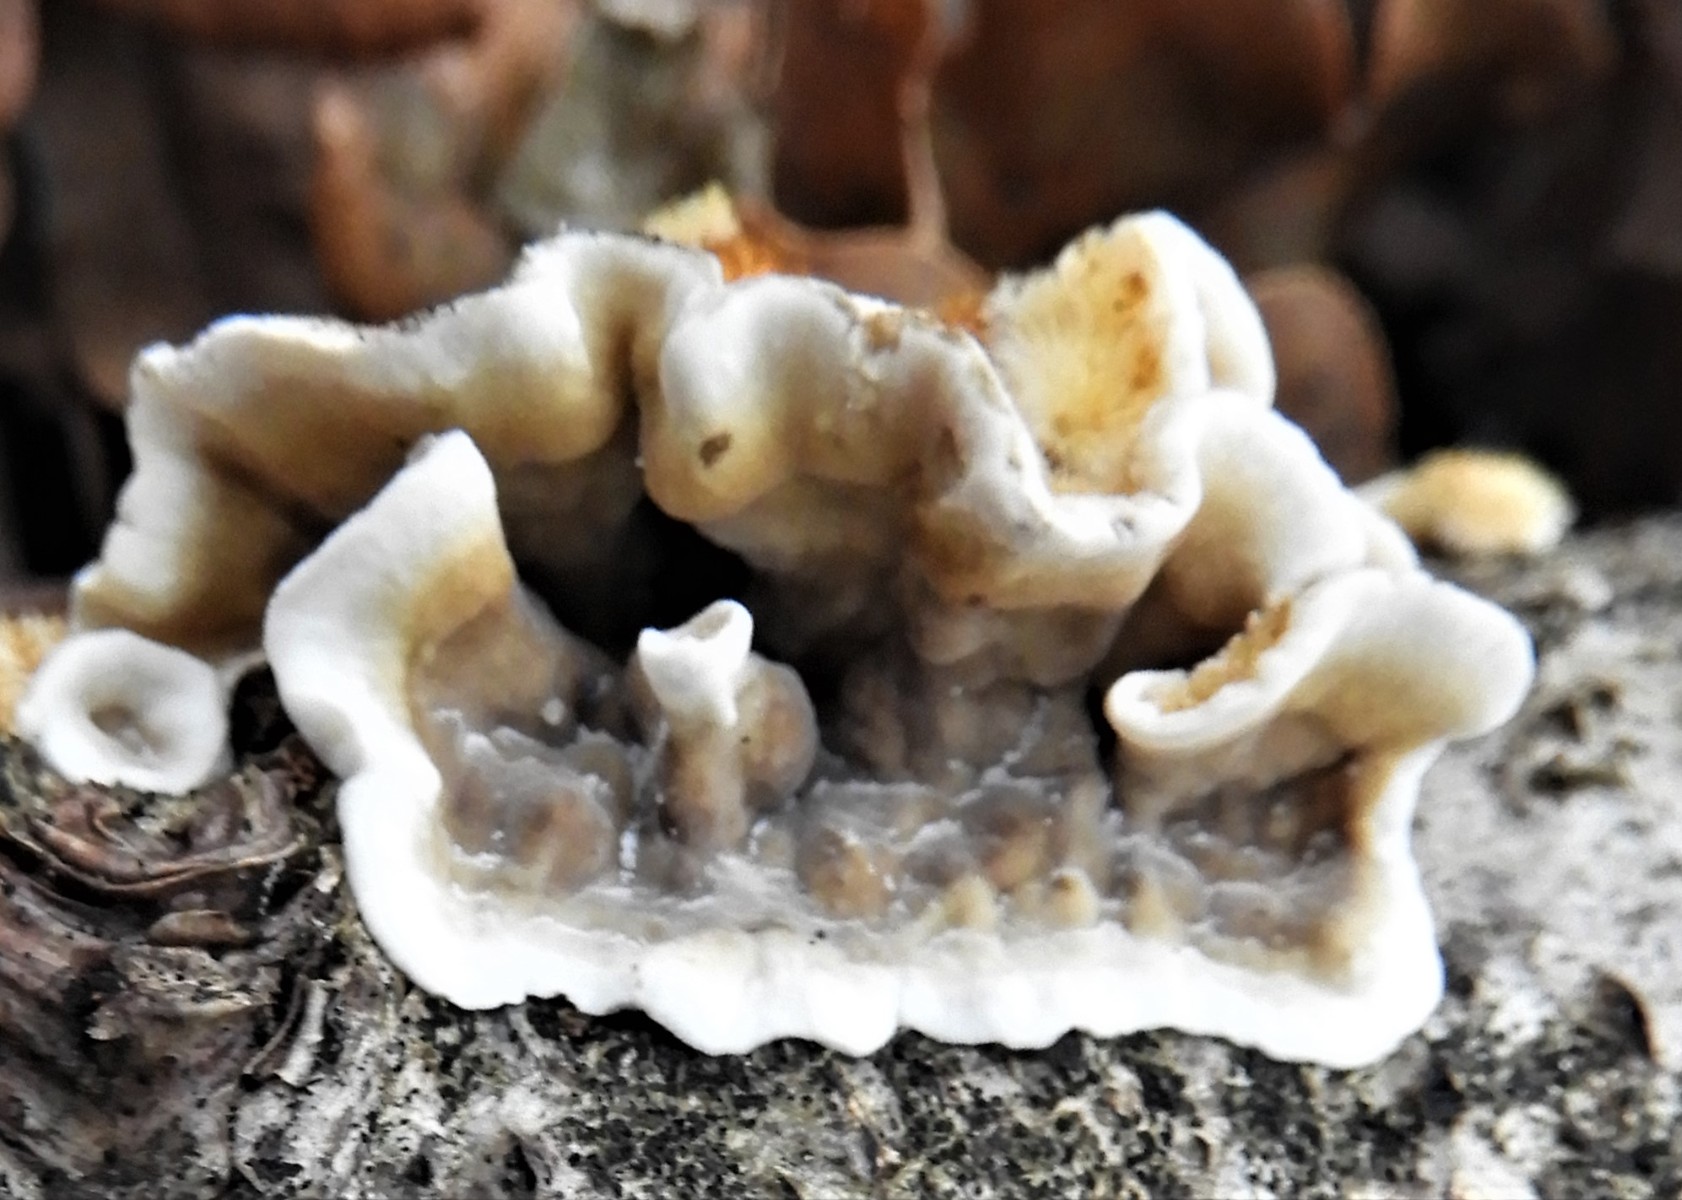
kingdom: Fungi
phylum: Basidiomycota
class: Agaricomycetes
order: Russulales
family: Stereaceae
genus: Stereum
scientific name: Stereum hirsutum
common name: håret lædersvamp
